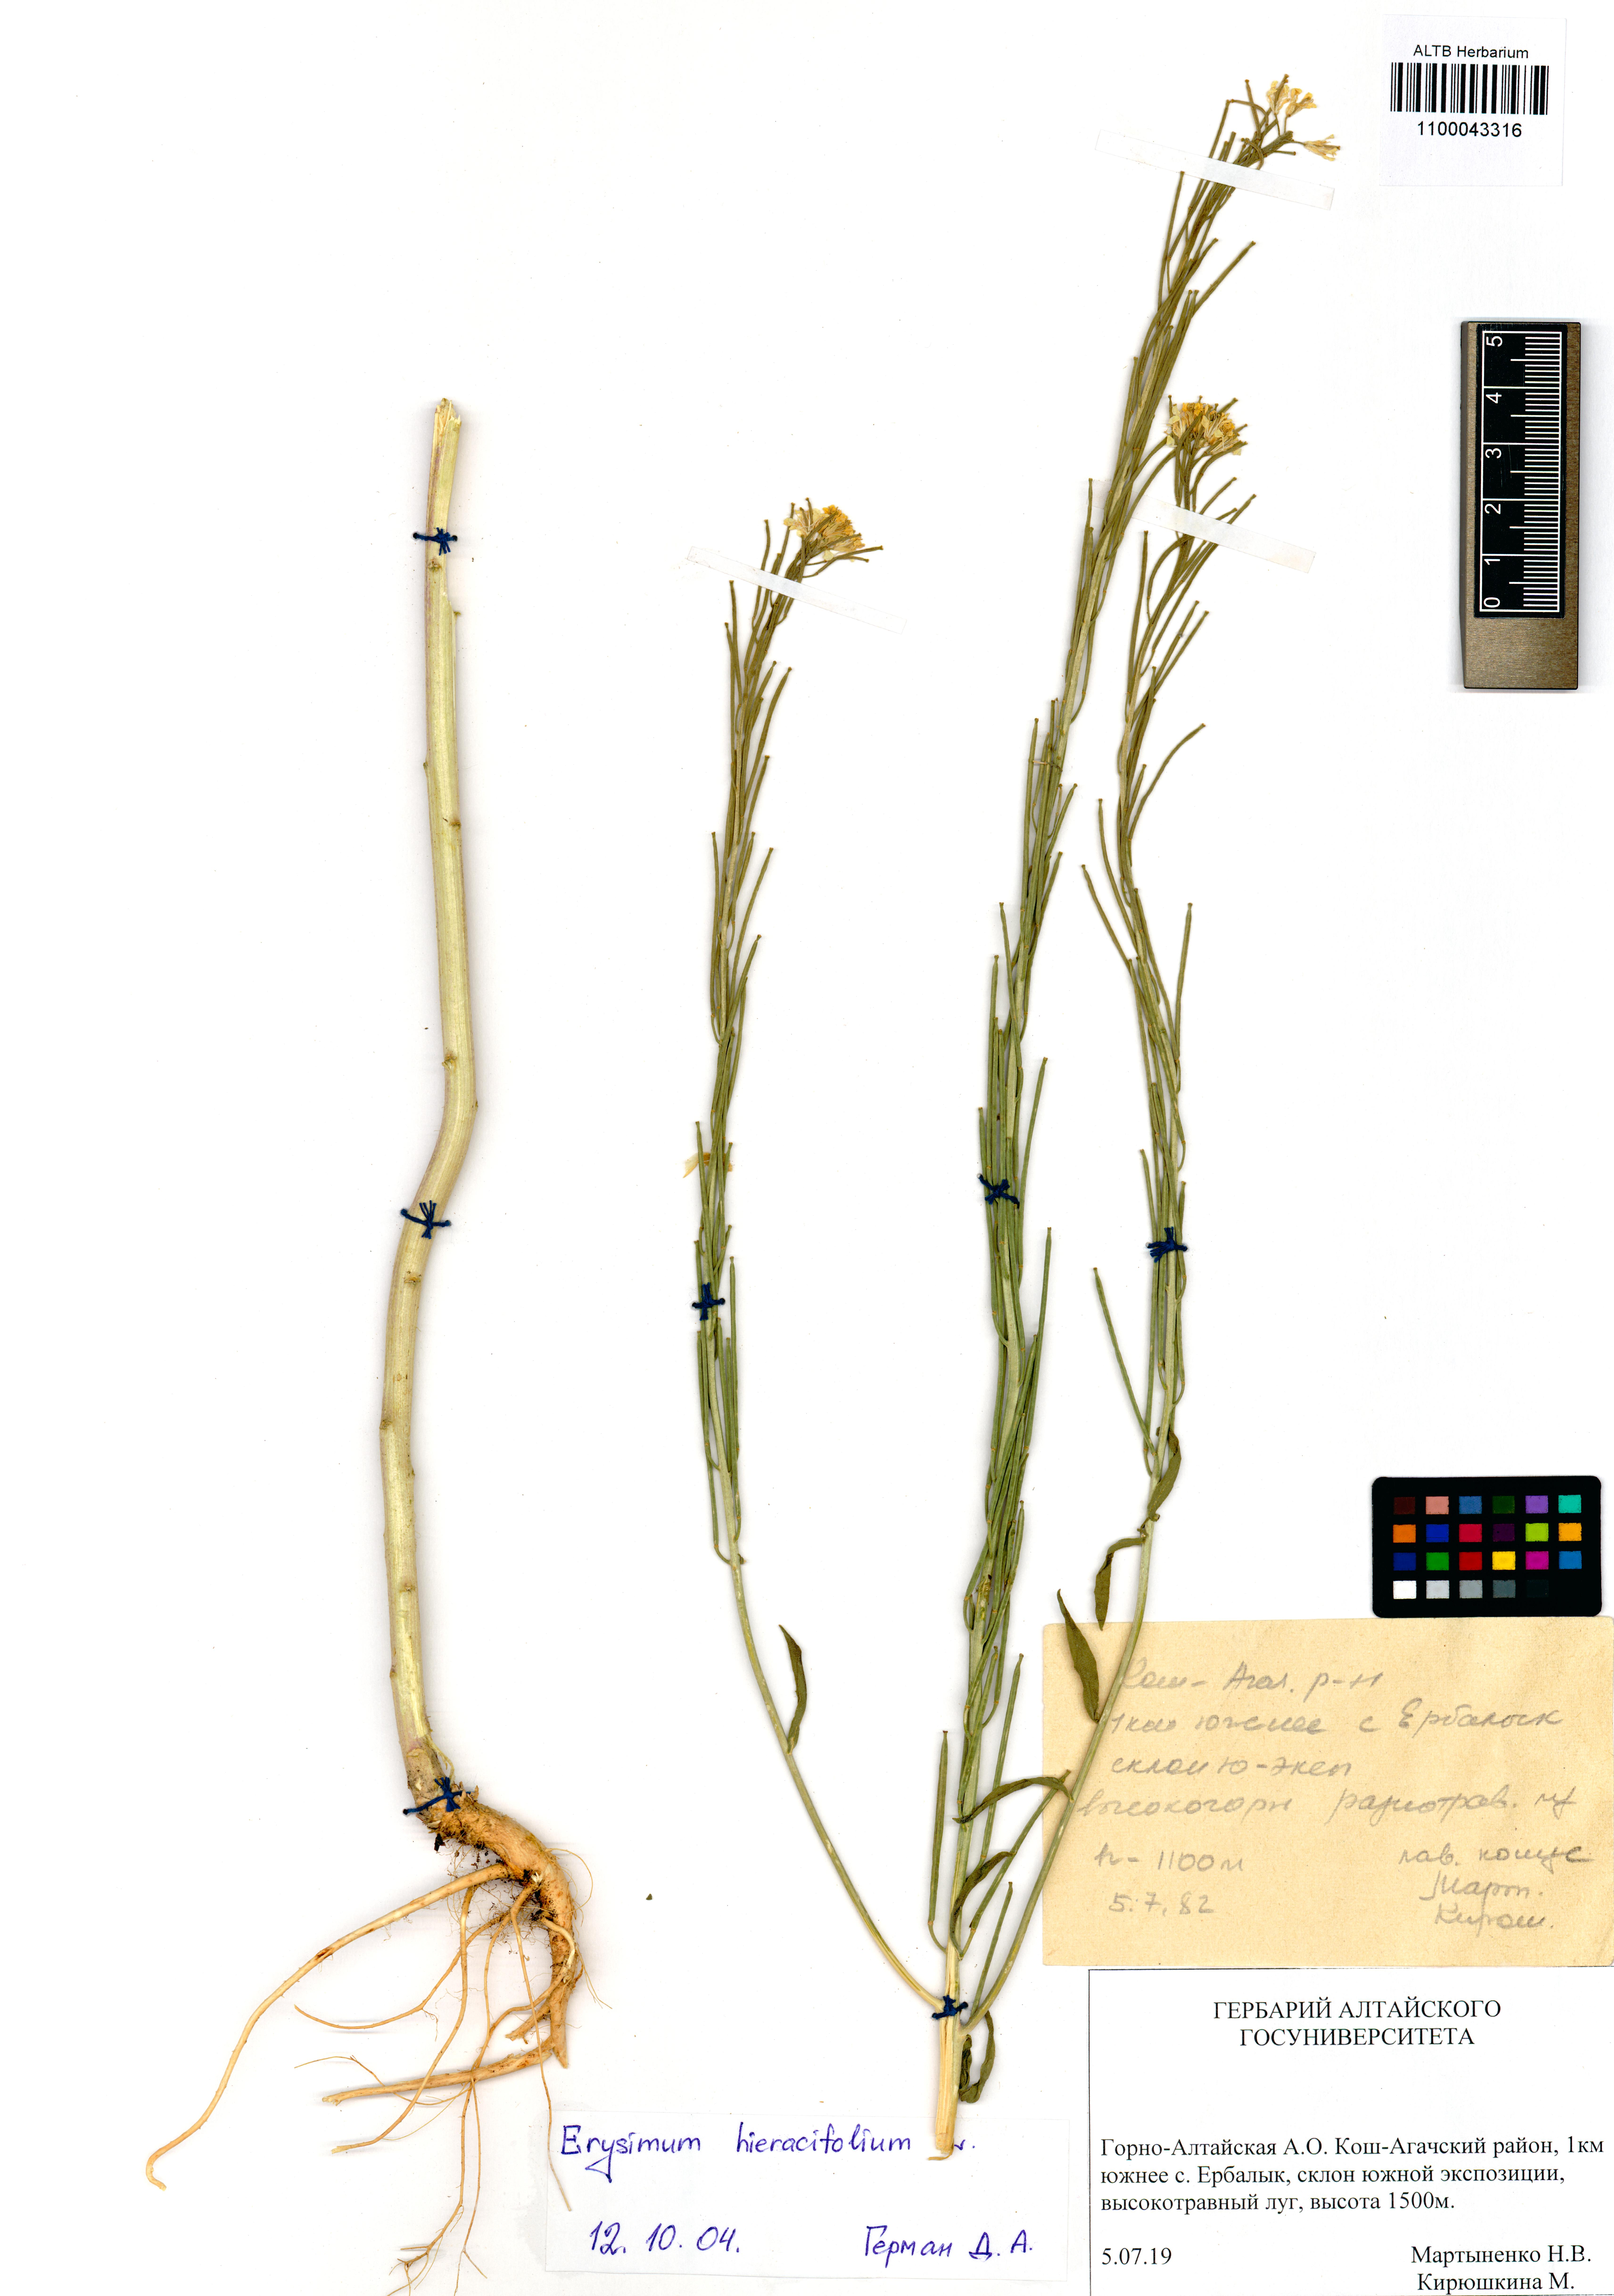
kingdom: Plantae
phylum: Tracheophyta
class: Magnoliopsida
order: Brassicales
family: Brassicaceae
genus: Erysimum
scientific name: Erysimum hieraciifolium
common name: European wallflower
